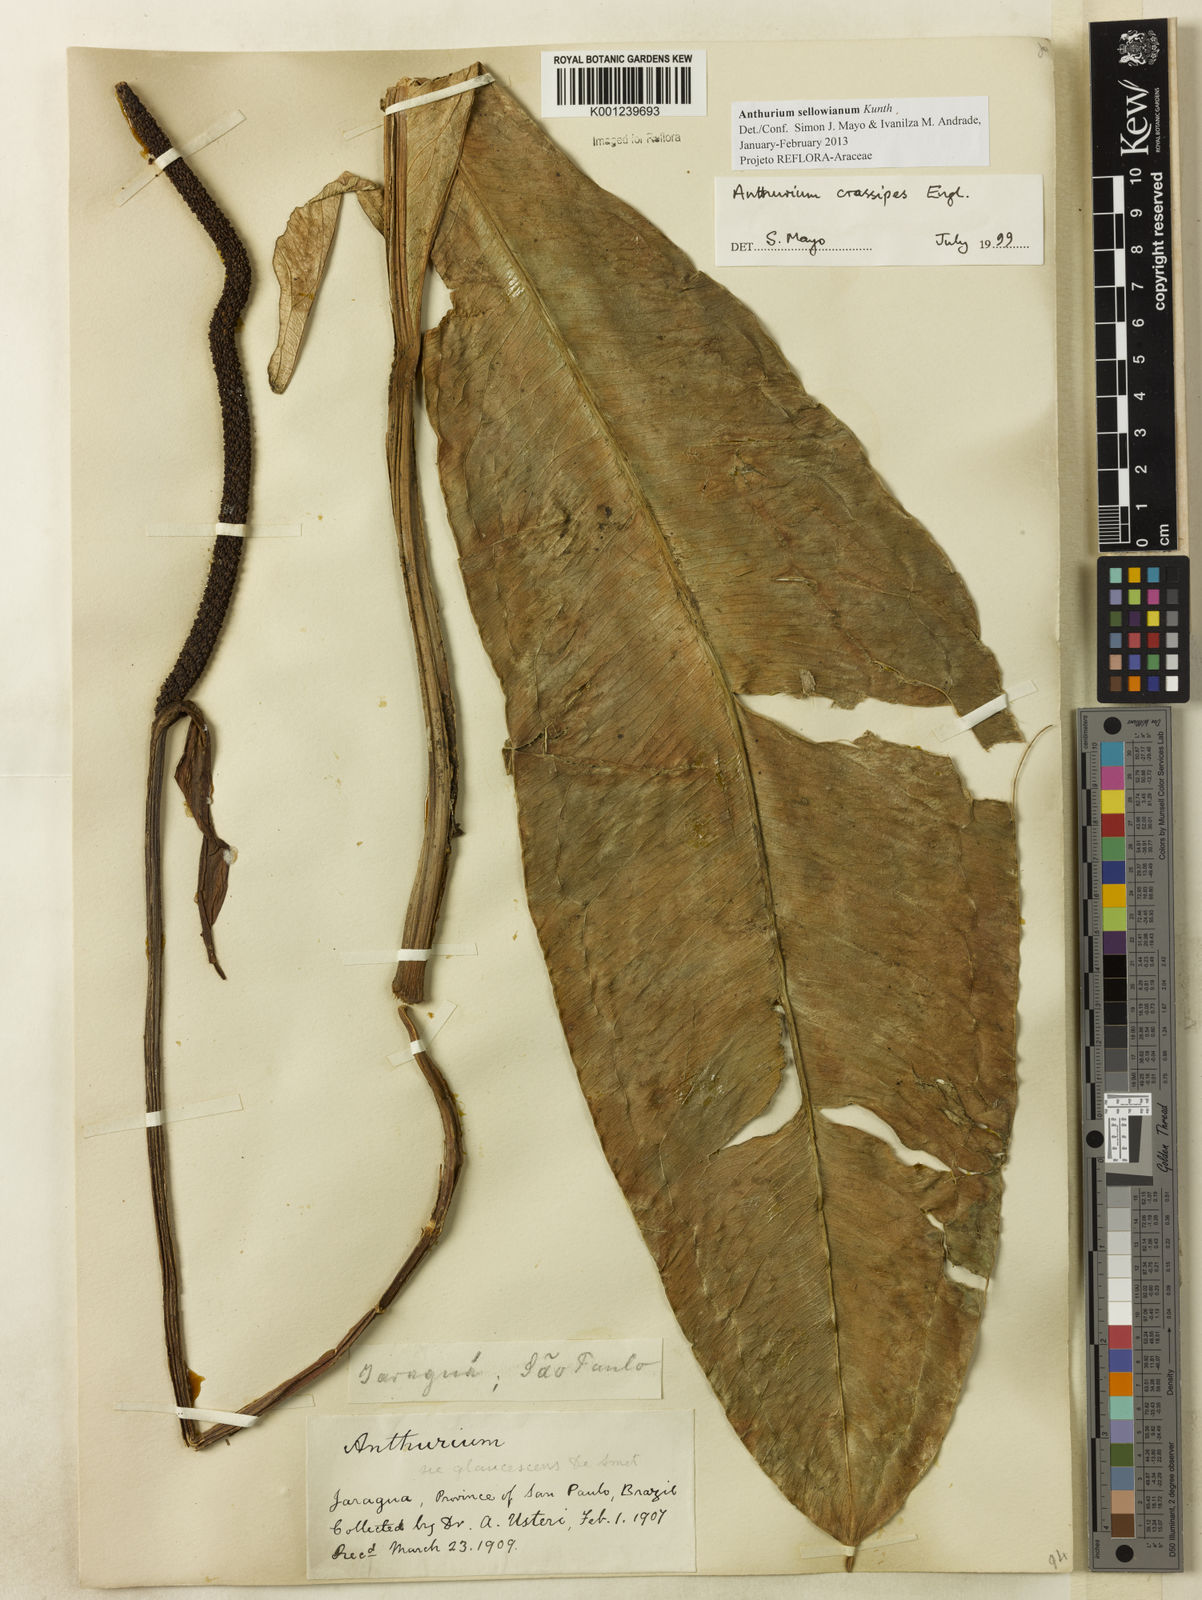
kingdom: Plantae
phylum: Tracheophyta
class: Liliopsida
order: Alismatales
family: Araceae
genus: Anthurium
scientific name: Anthurium sellowianum
